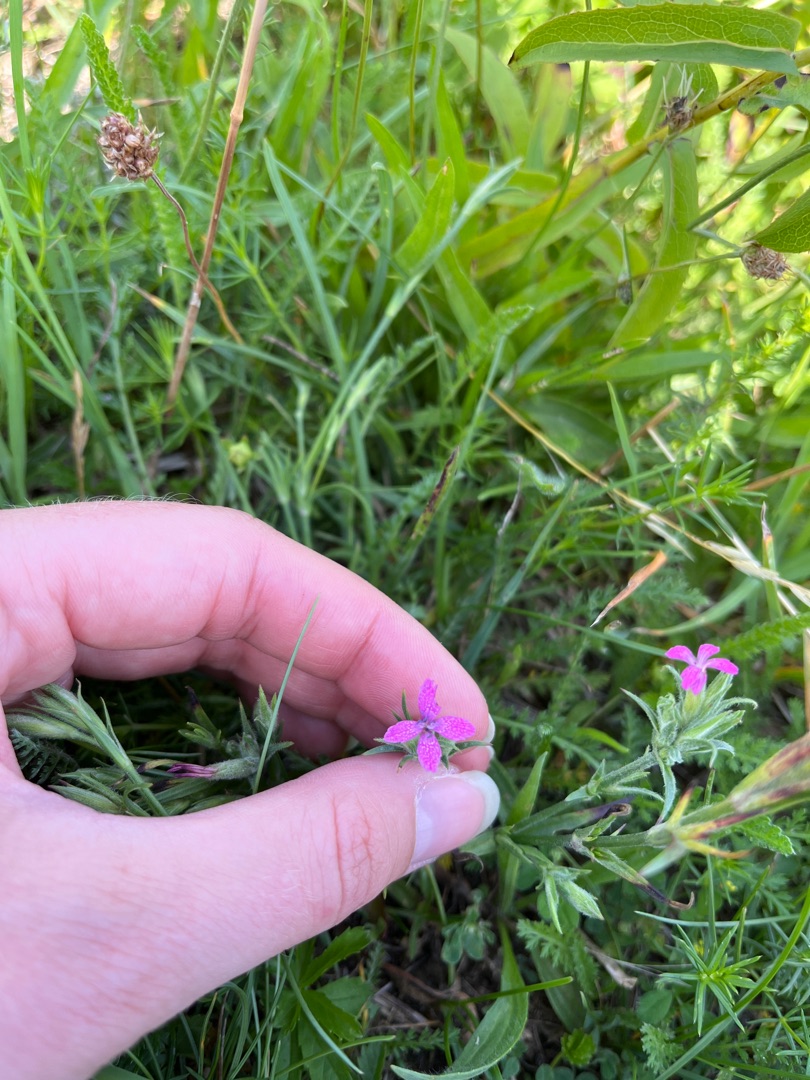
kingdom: Plantae
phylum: Tracheophyta
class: Magnoliopsida
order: Caryophyllales
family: Caryophyllaceae
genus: Dianthus
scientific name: Dianthus armeria
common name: Kost-nellike
